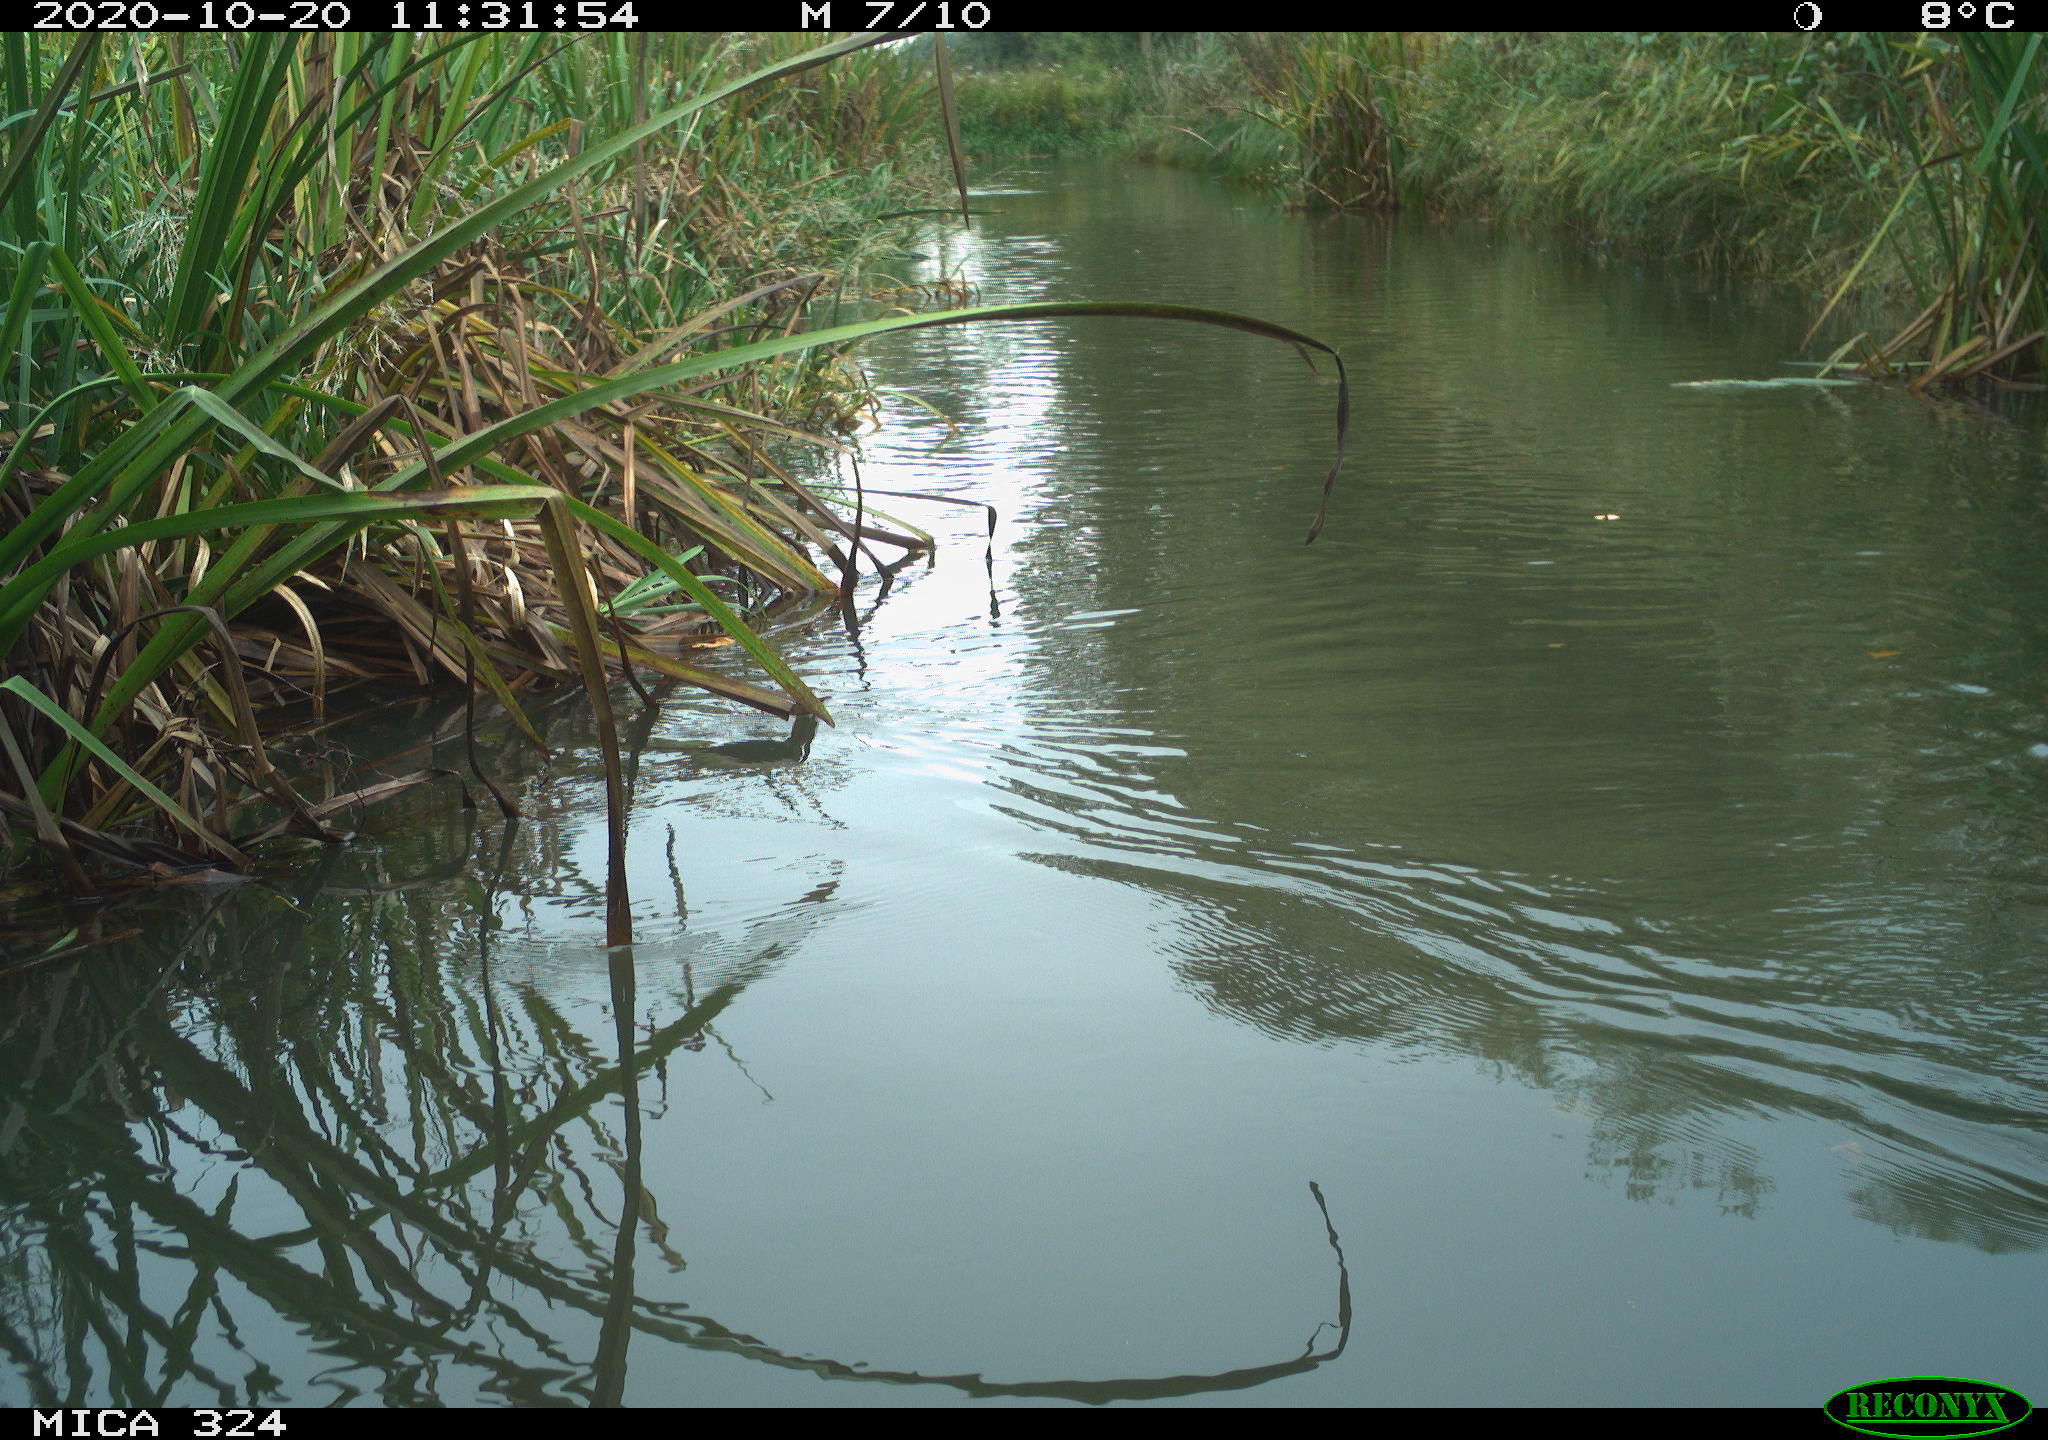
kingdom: Animalia
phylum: Chordata
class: Aves
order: Gruiformes
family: Rallidae
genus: Fulica
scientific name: Fulica atra
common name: Eurasian coot
